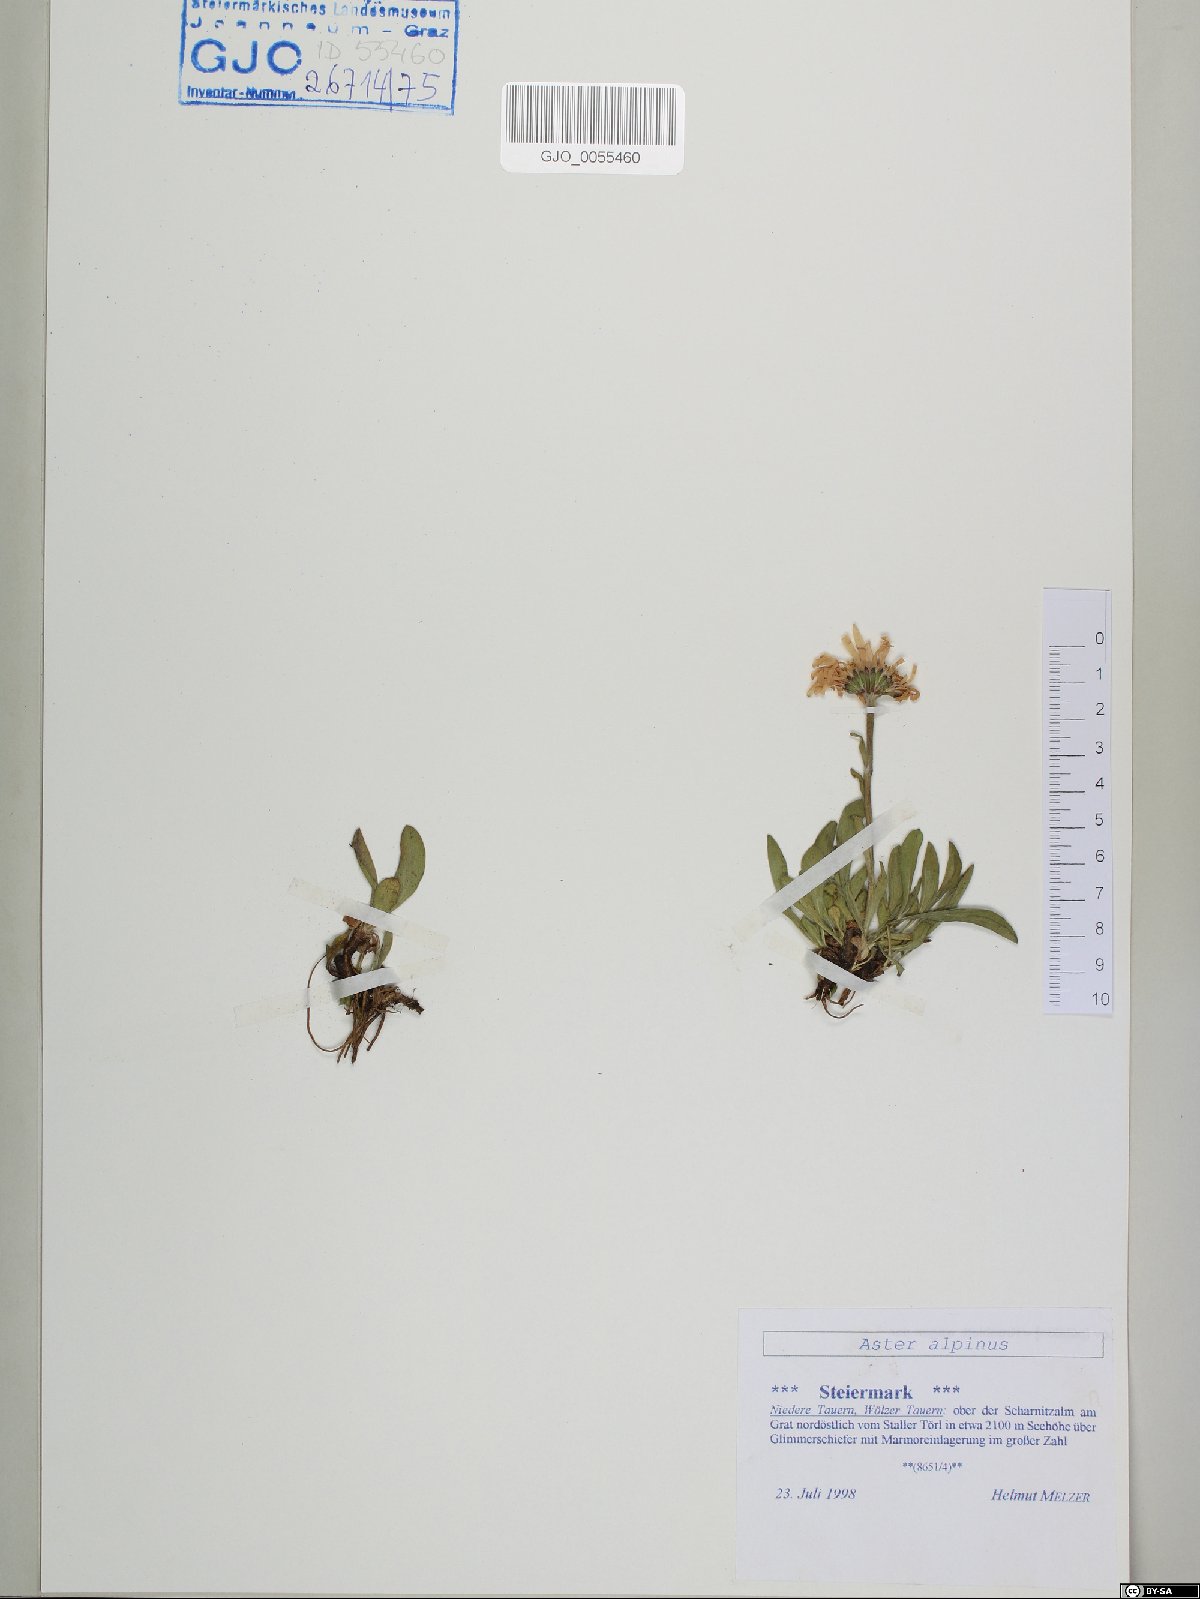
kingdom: Plantae
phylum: Tracheophyta
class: Magnoliopsida
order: Asterales
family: Asteraceae
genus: Aster
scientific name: Aster alpinus
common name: Alpine aster
